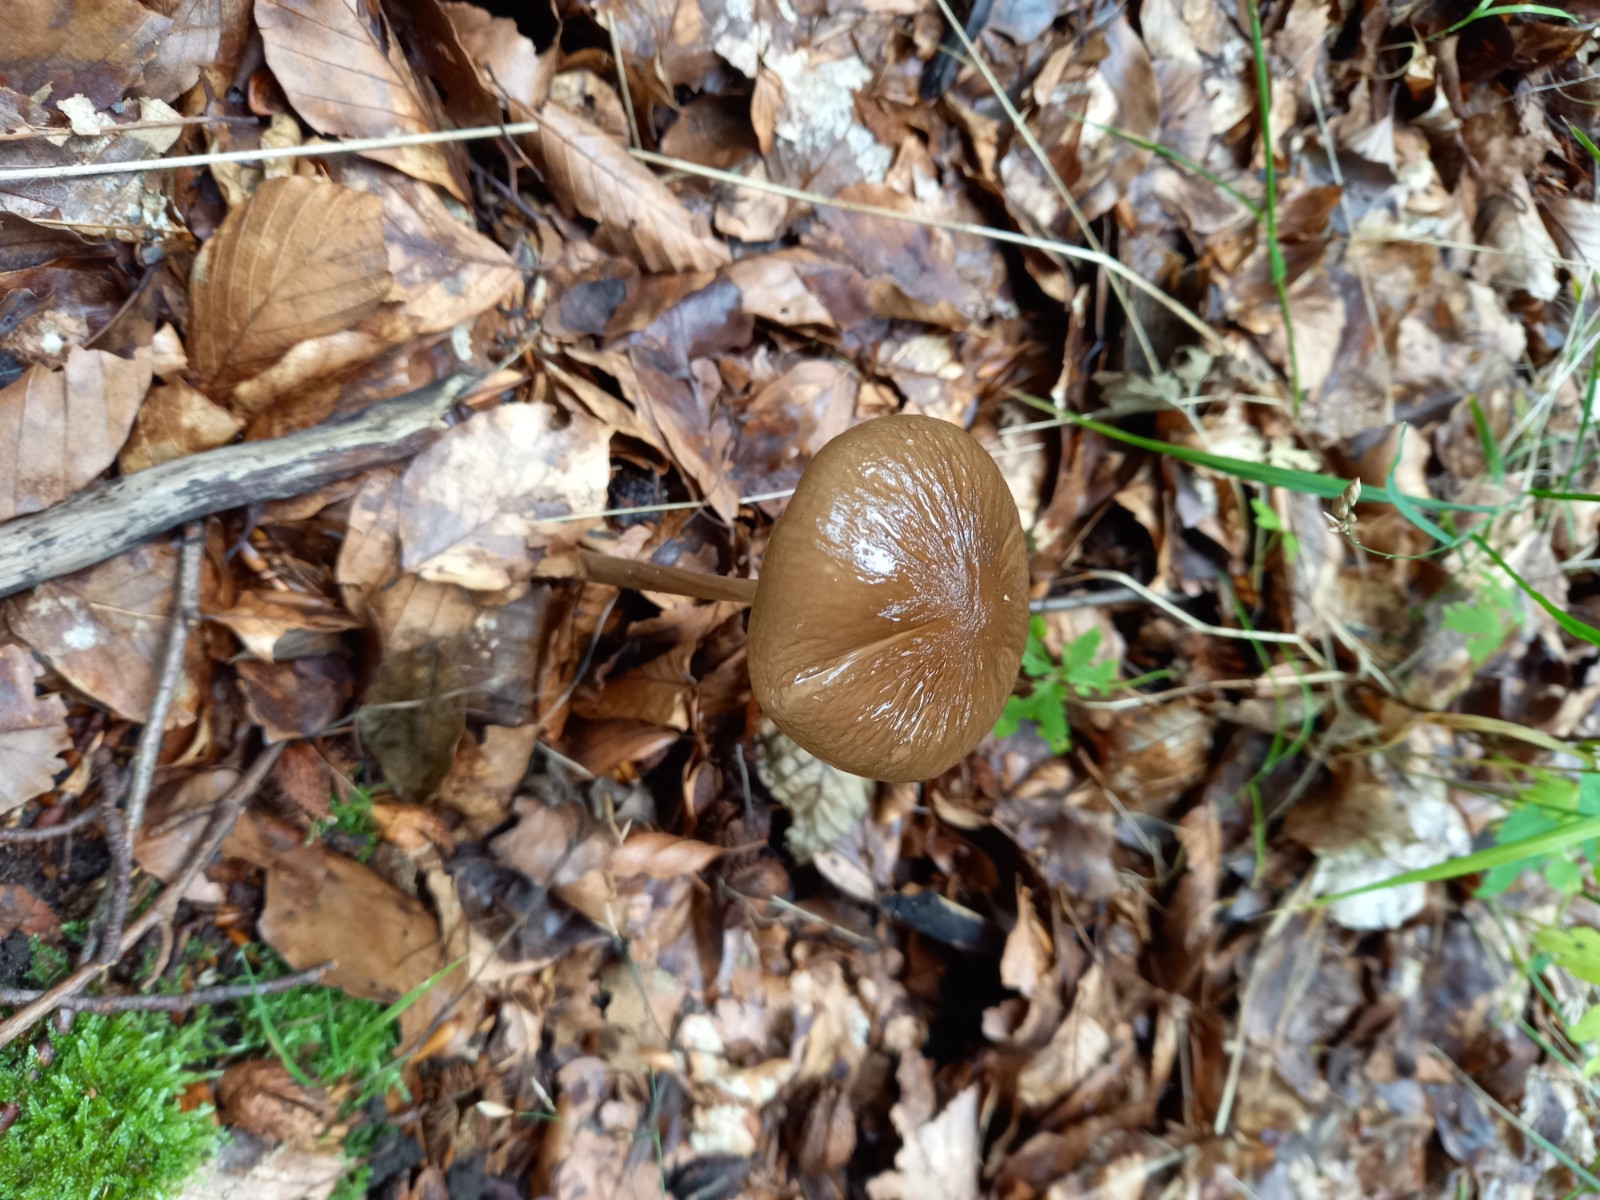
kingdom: Fungi
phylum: Basidiomycota
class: Agaricomycetes
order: Agaricales
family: Physalacriaceae
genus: Hymenopellis
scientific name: Hymenopellis radicata
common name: almindelig pælerodshat
